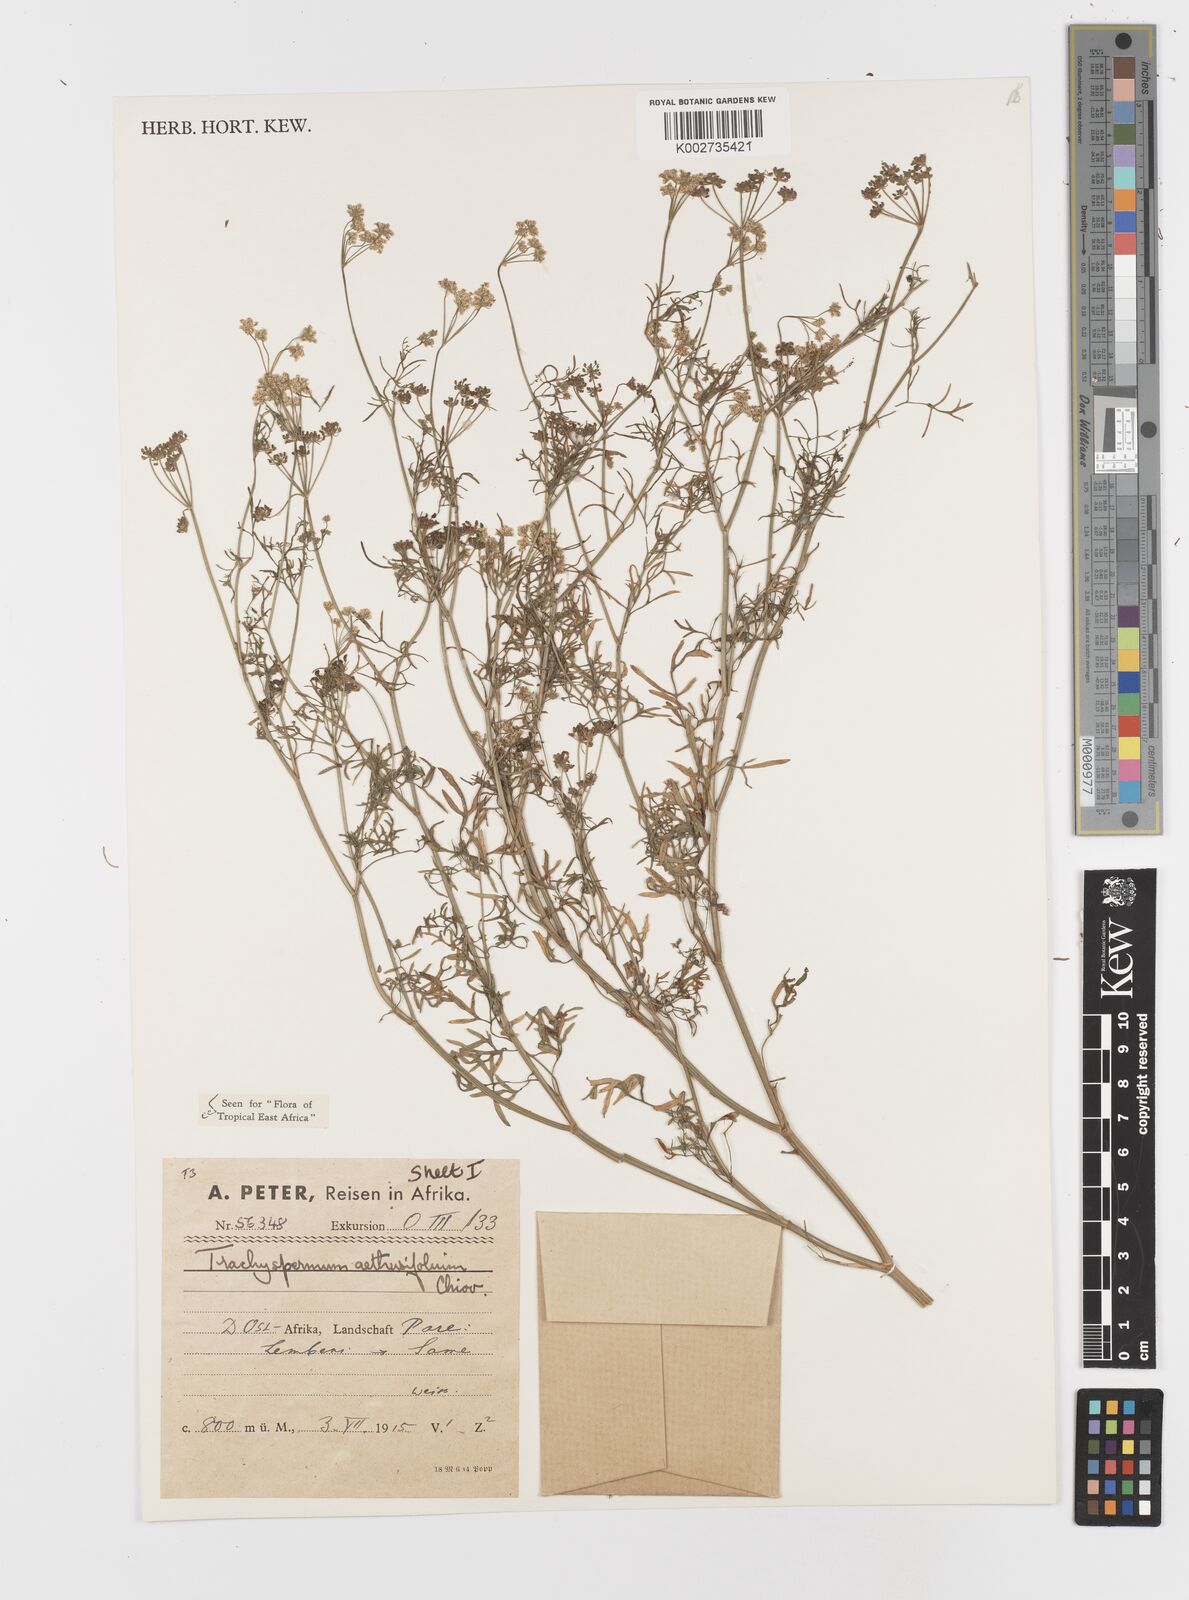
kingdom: Plantae
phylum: Tracheophyta
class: Magnoliopsida
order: Apiales
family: Apiaceae
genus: Trachyspermum
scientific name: Trachyspermum pimpinelloides
